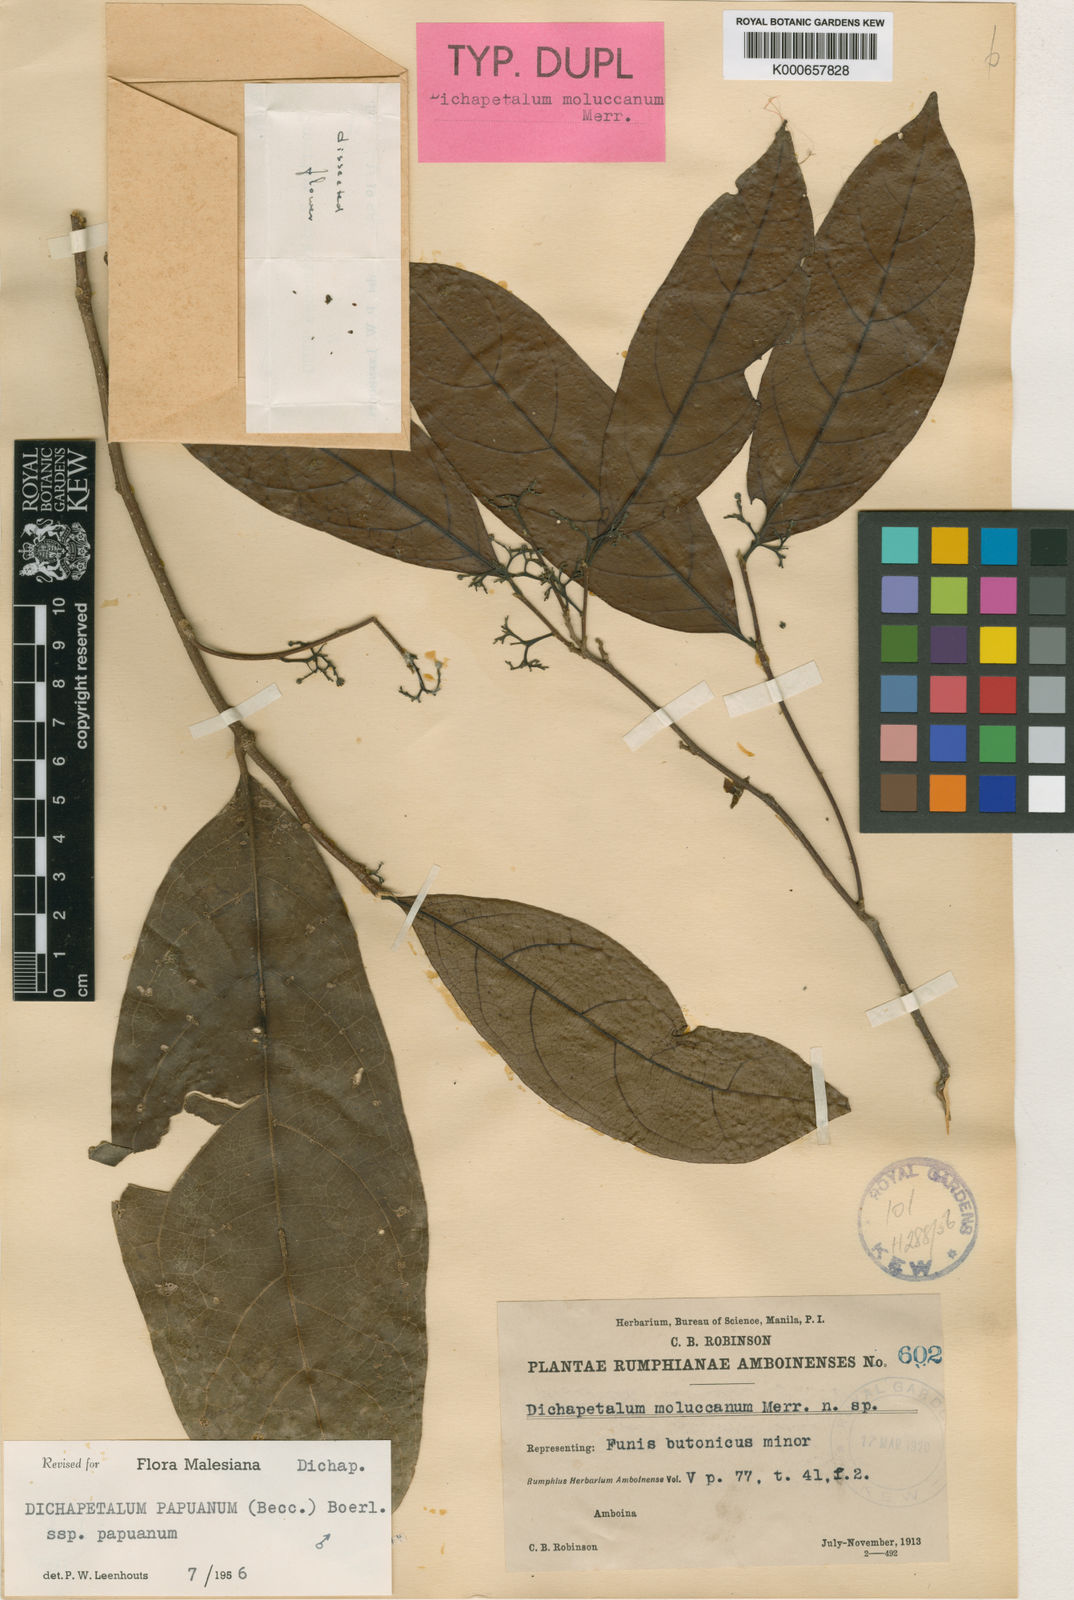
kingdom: Plantae
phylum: Tracheophyta
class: Magnoliopsida
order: Malpighiales
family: Dichapetalaceae
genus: Dichapetalum
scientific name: Dichapetalum grandifolium
